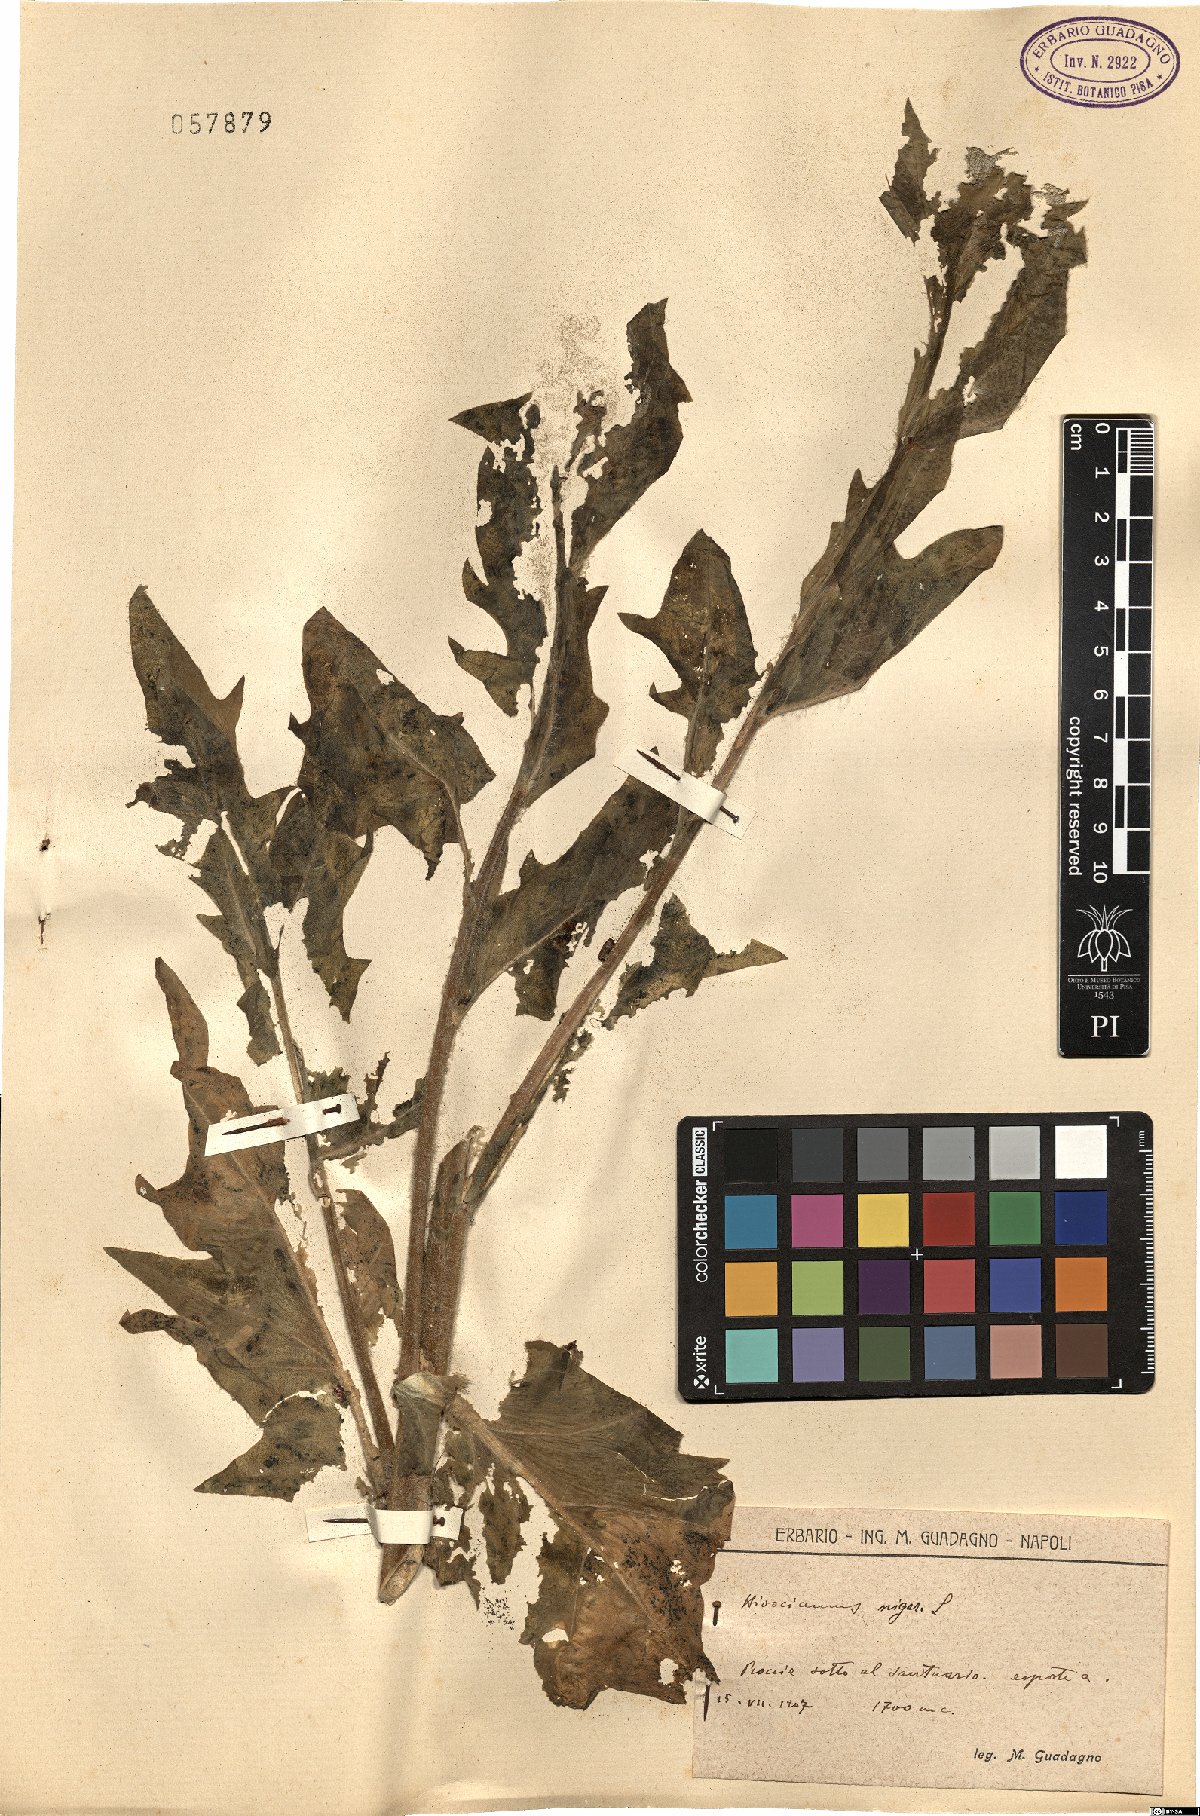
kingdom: Plantae
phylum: Tracheophyta
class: Magnoliopsida
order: Solanales
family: Solanaceae
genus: Hyoscyamus
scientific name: Hyoscyamus niger
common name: Henbane
